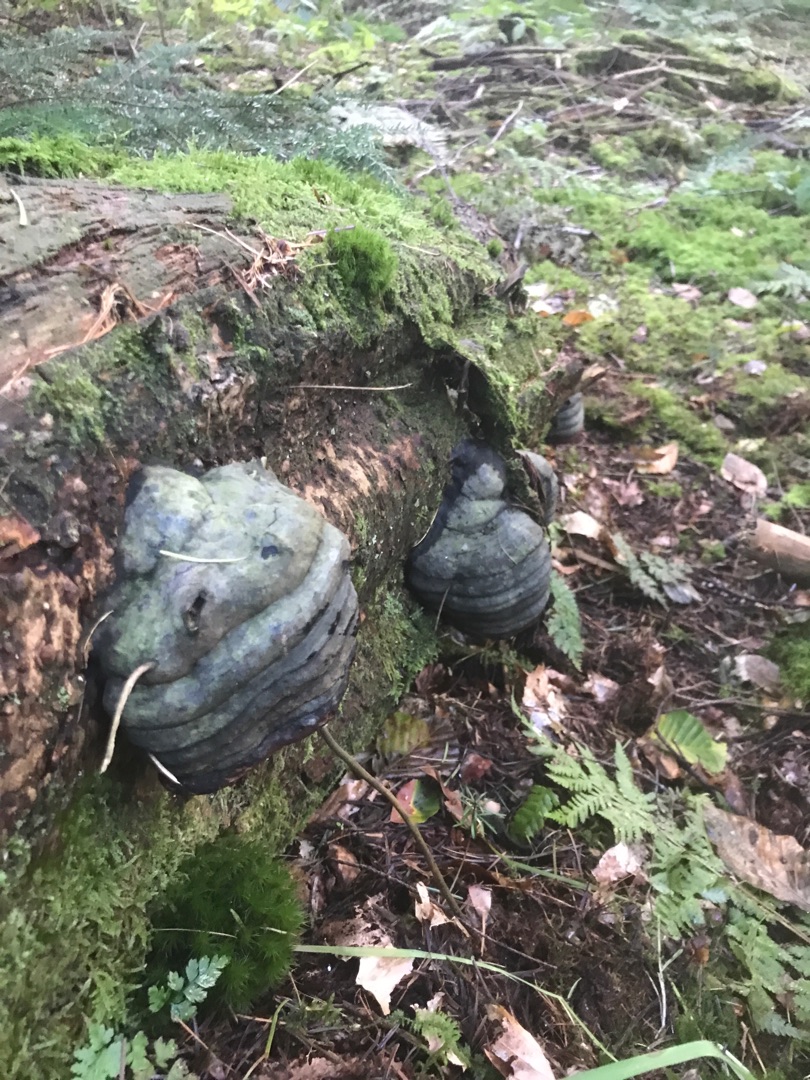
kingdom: Fungi
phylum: Basidiomycota
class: Agaricomycetes
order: Polyporales
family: Polyporaceae
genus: Fomes
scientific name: Fomes fomentarius
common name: Tøndersvamp
